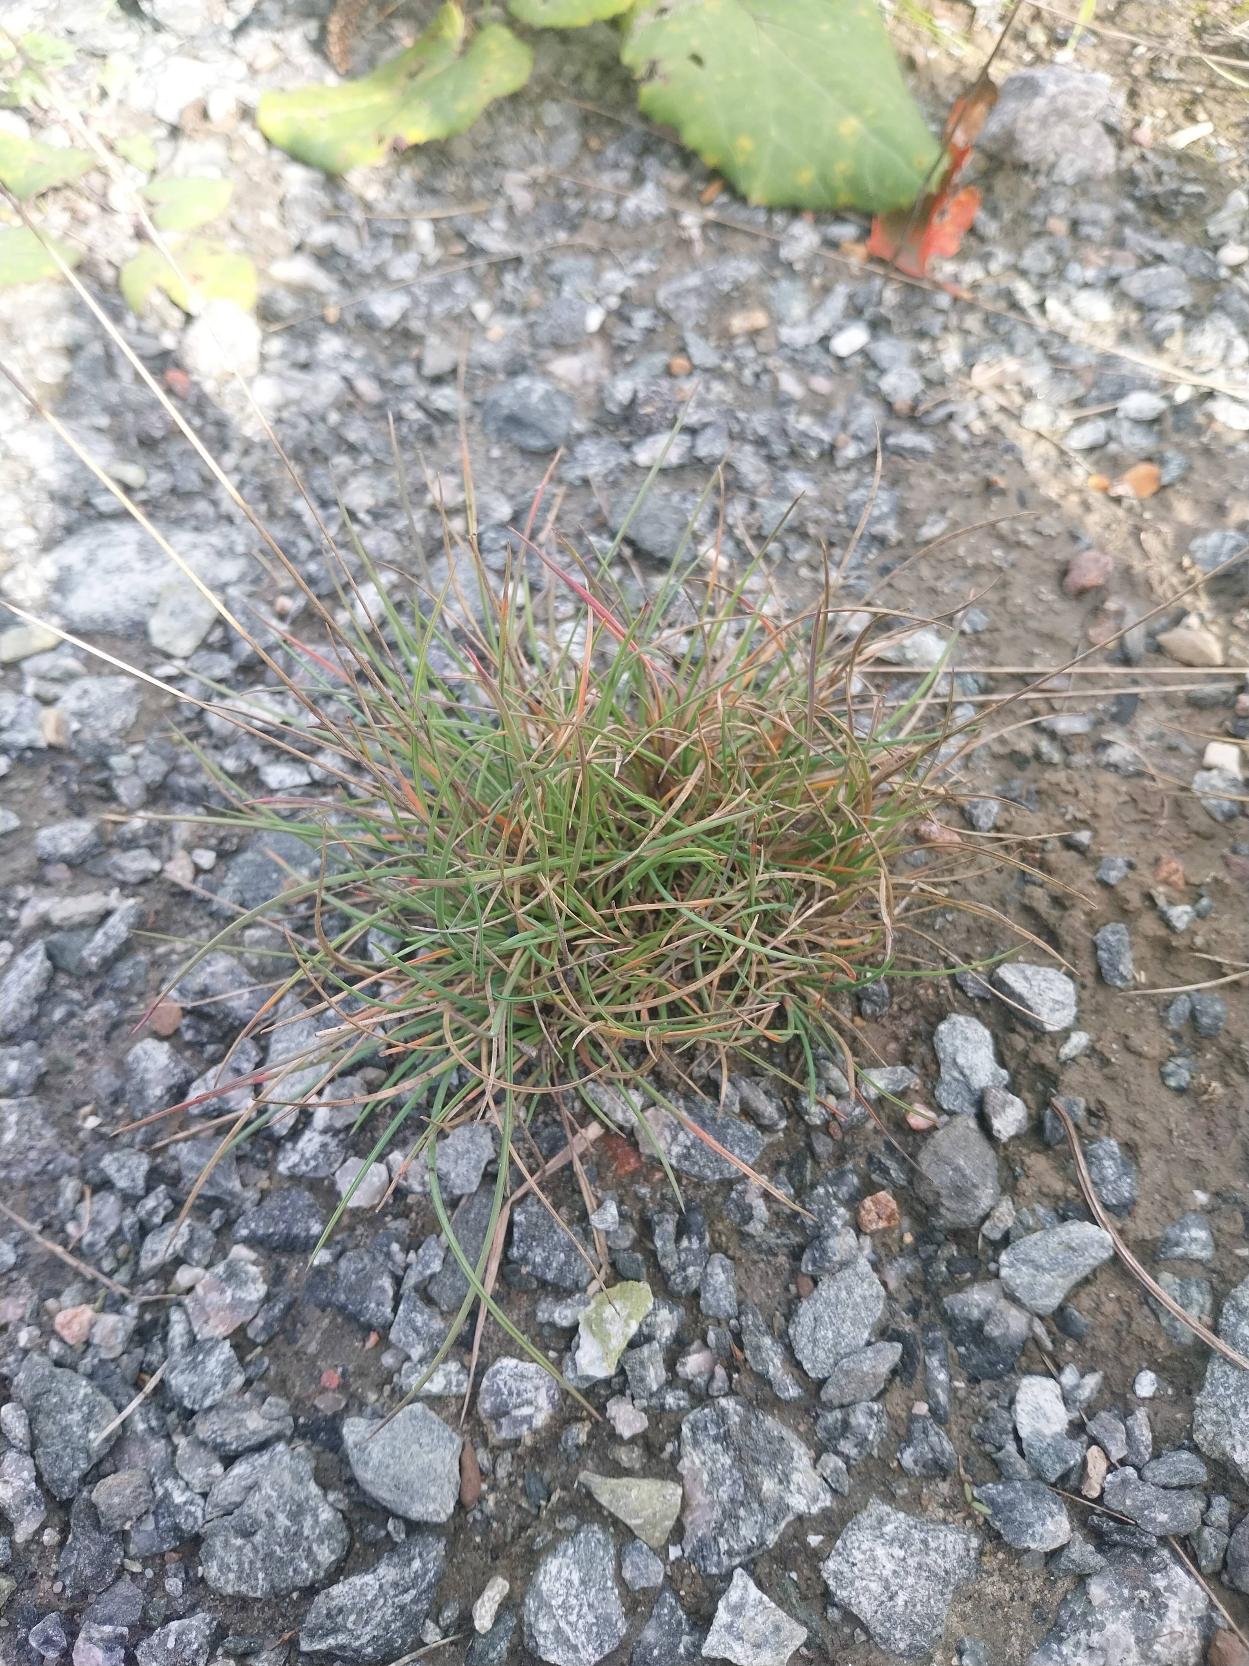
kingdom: Plantae
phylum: Tracheophyta
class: Liliopsida
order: Poales
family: Poaceae
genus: Festuca
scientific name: Festuca trachyphylla
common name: Bakke-svingel
